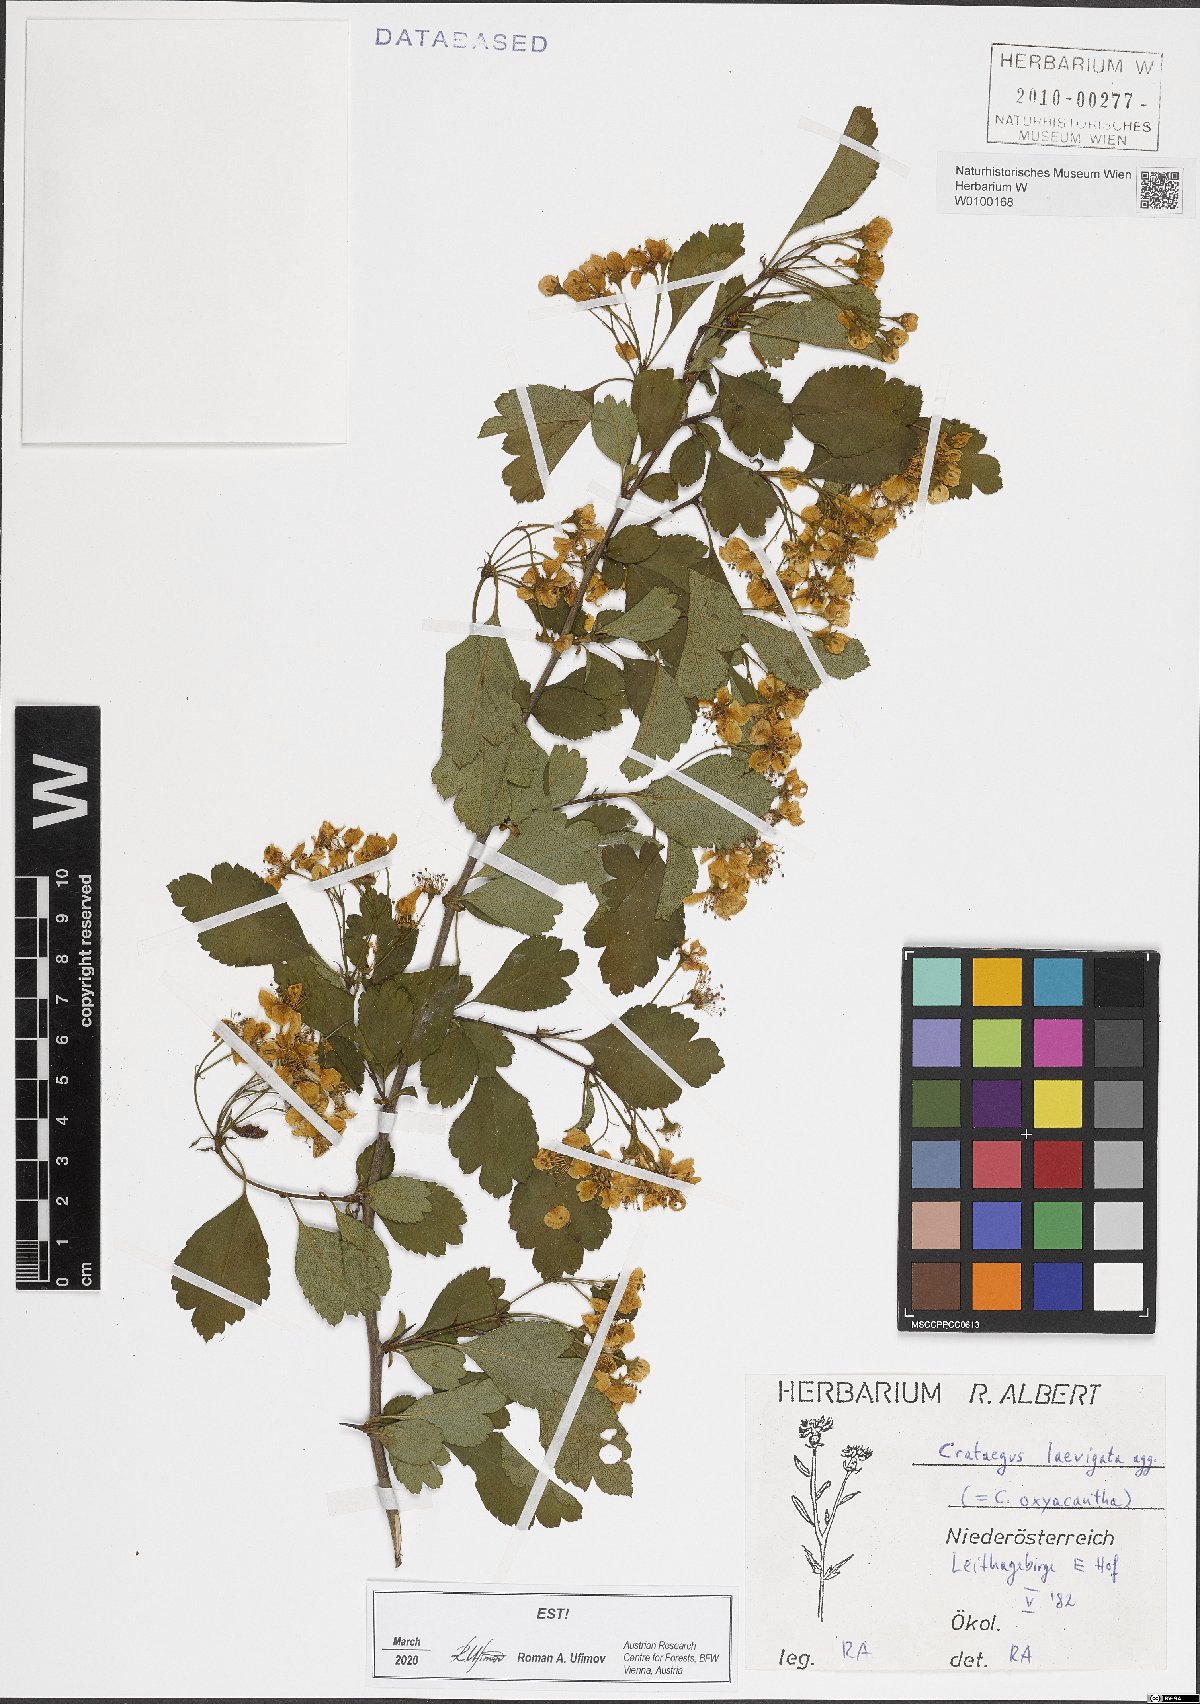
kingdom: Plantae
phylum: Tracheophyta
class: Magnoliopsida
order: Rosales
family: Rosaceae
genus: Crataegus
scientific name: Crataegus laevigata
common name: Midland hawthorn
